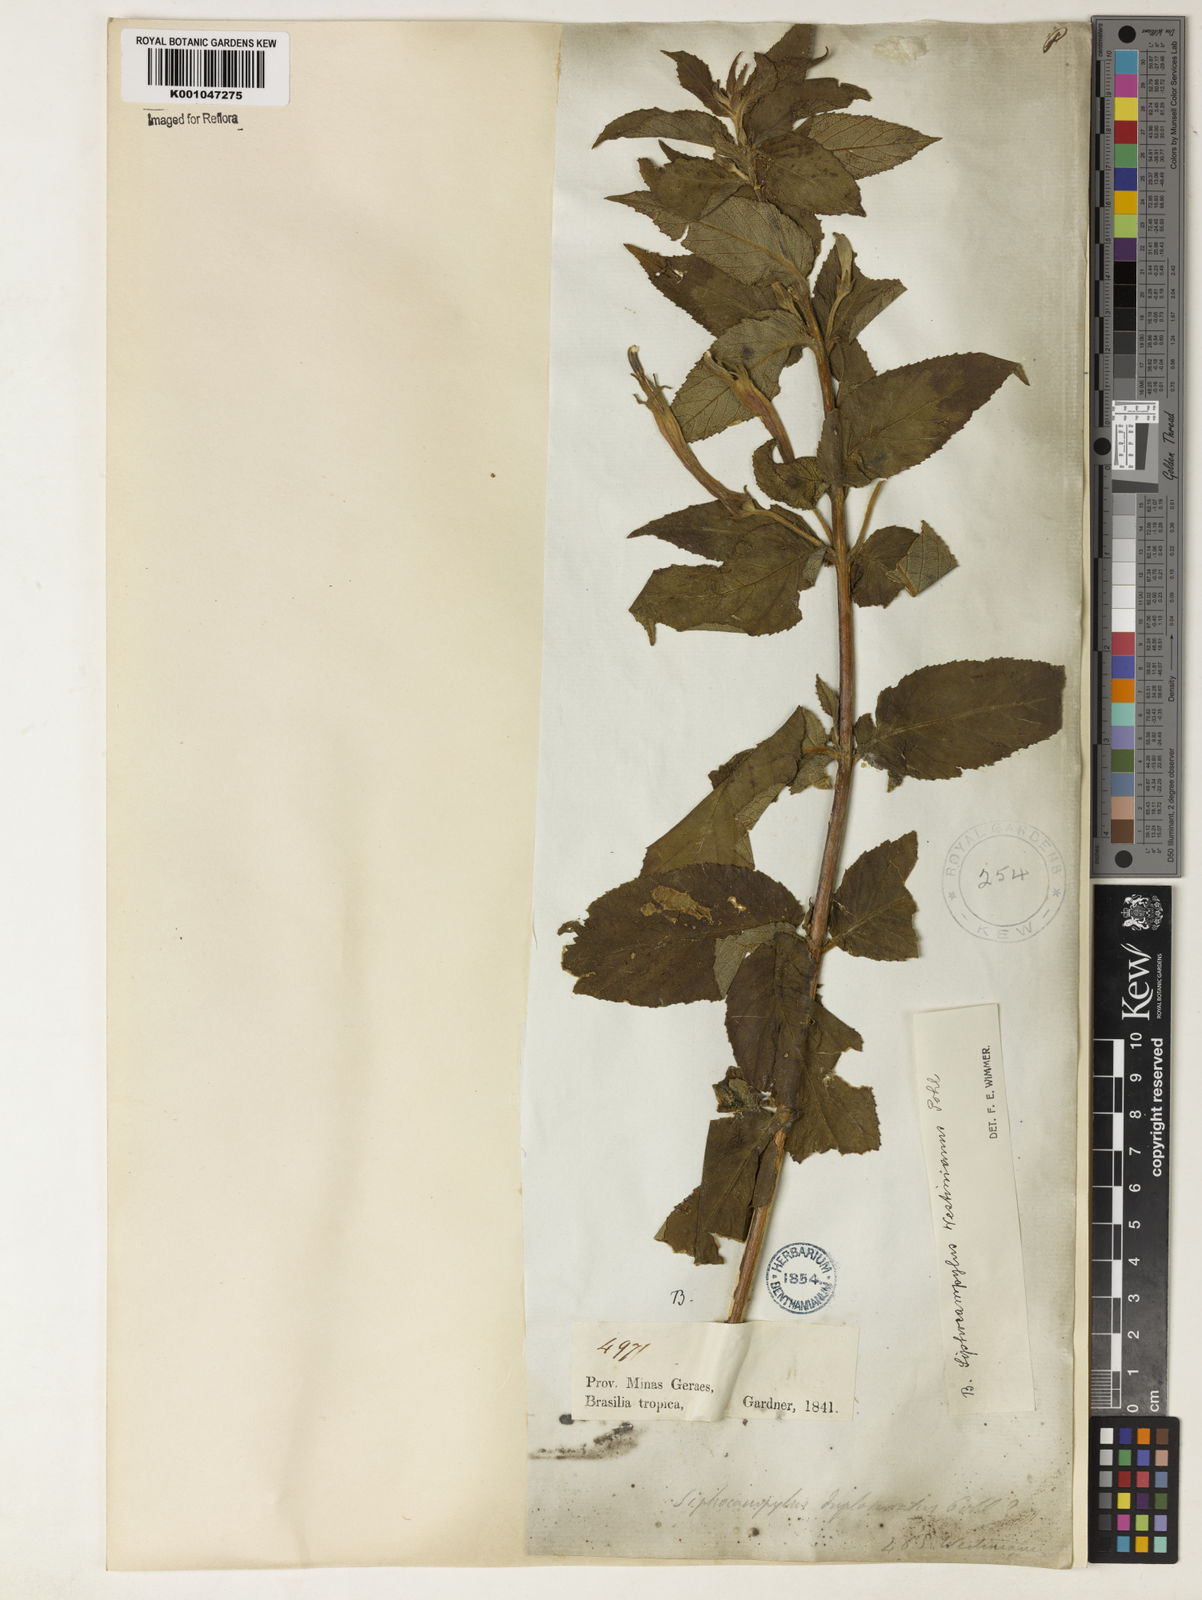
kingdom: Plantae
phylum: Tracheophyta
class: Magnoliopsida
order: Asterales
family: Campanulaceae
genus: Siphocampylus
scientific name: Siphocampylus westinianus
